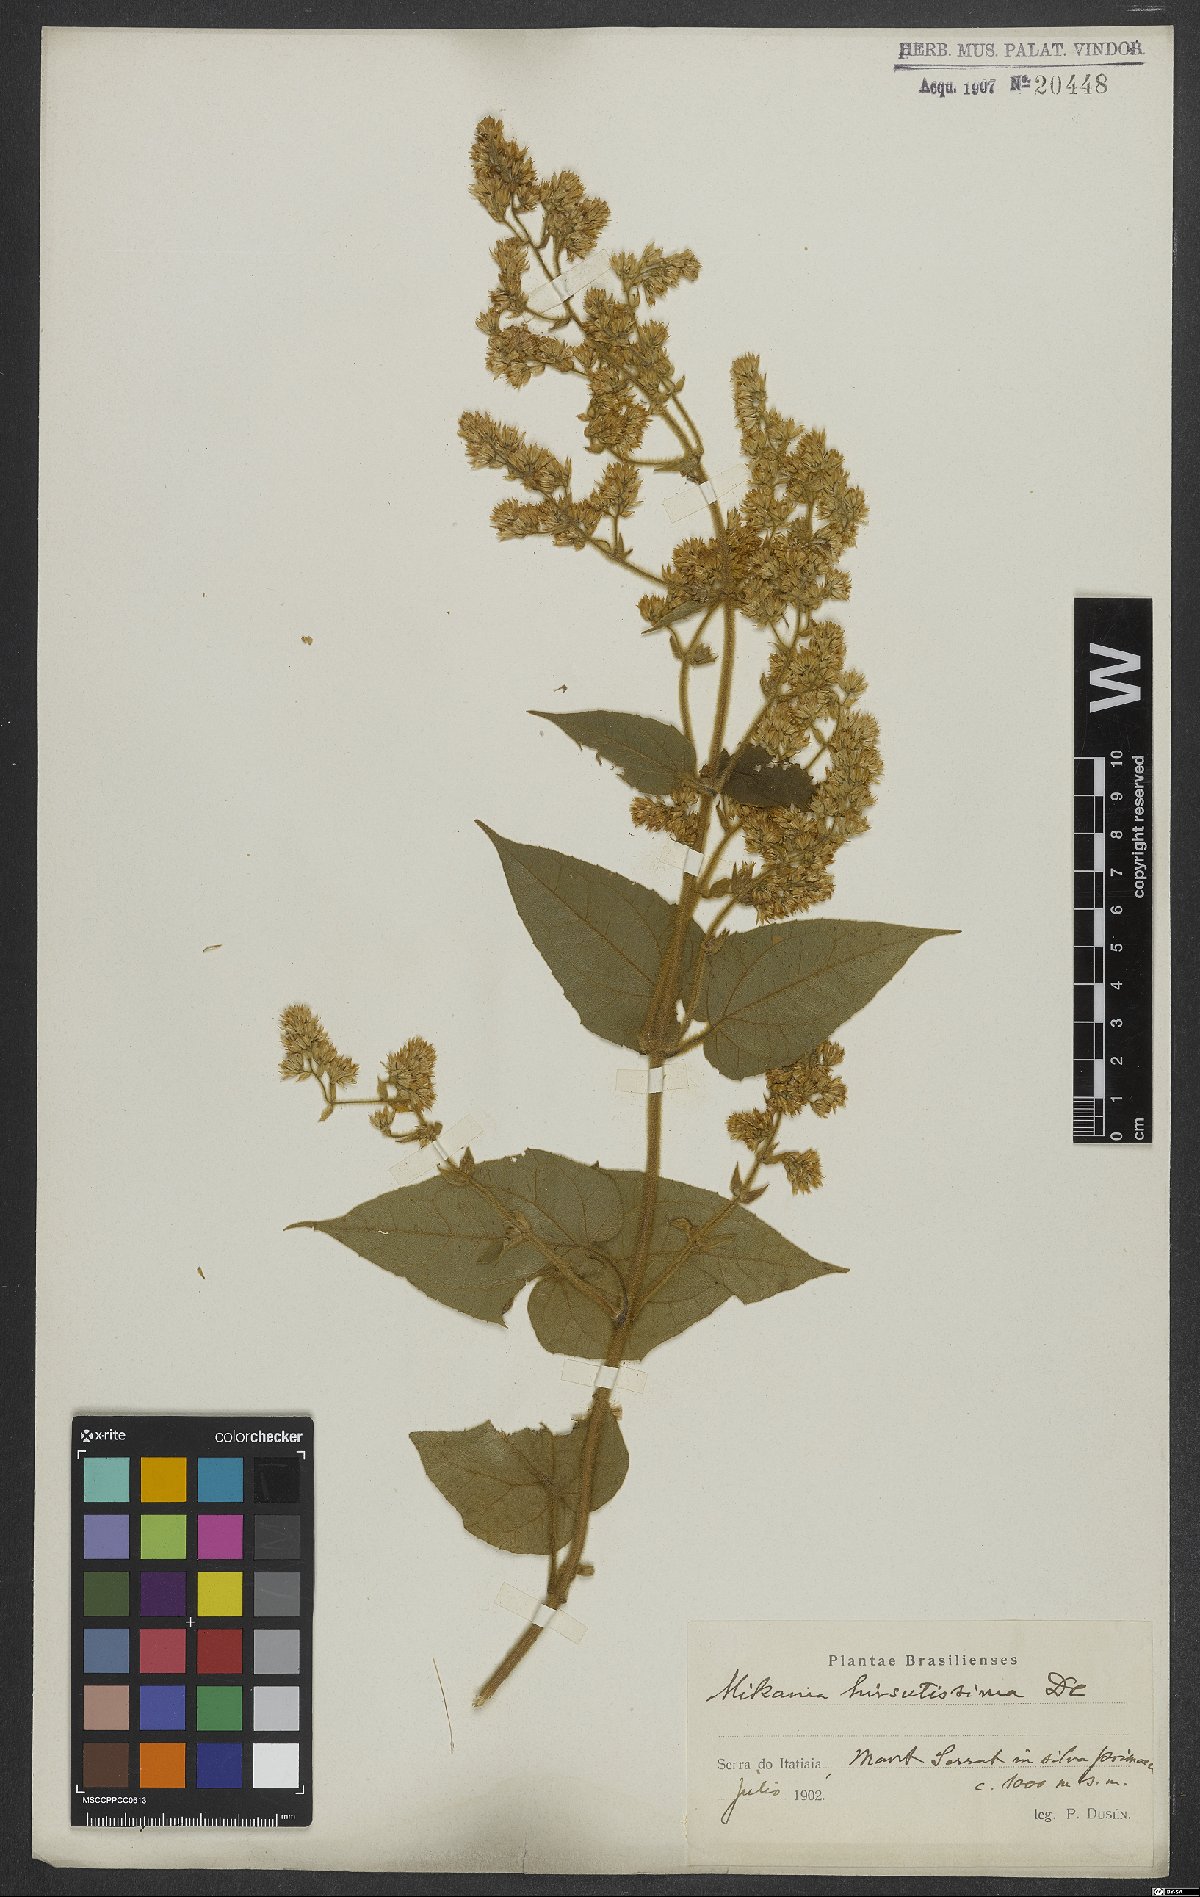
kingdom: Plantae
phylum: Tracheophyta
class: Magnoliopsida
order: Asterales
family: Asteraceae
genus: Mikania
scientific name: Mikania banisteriae
